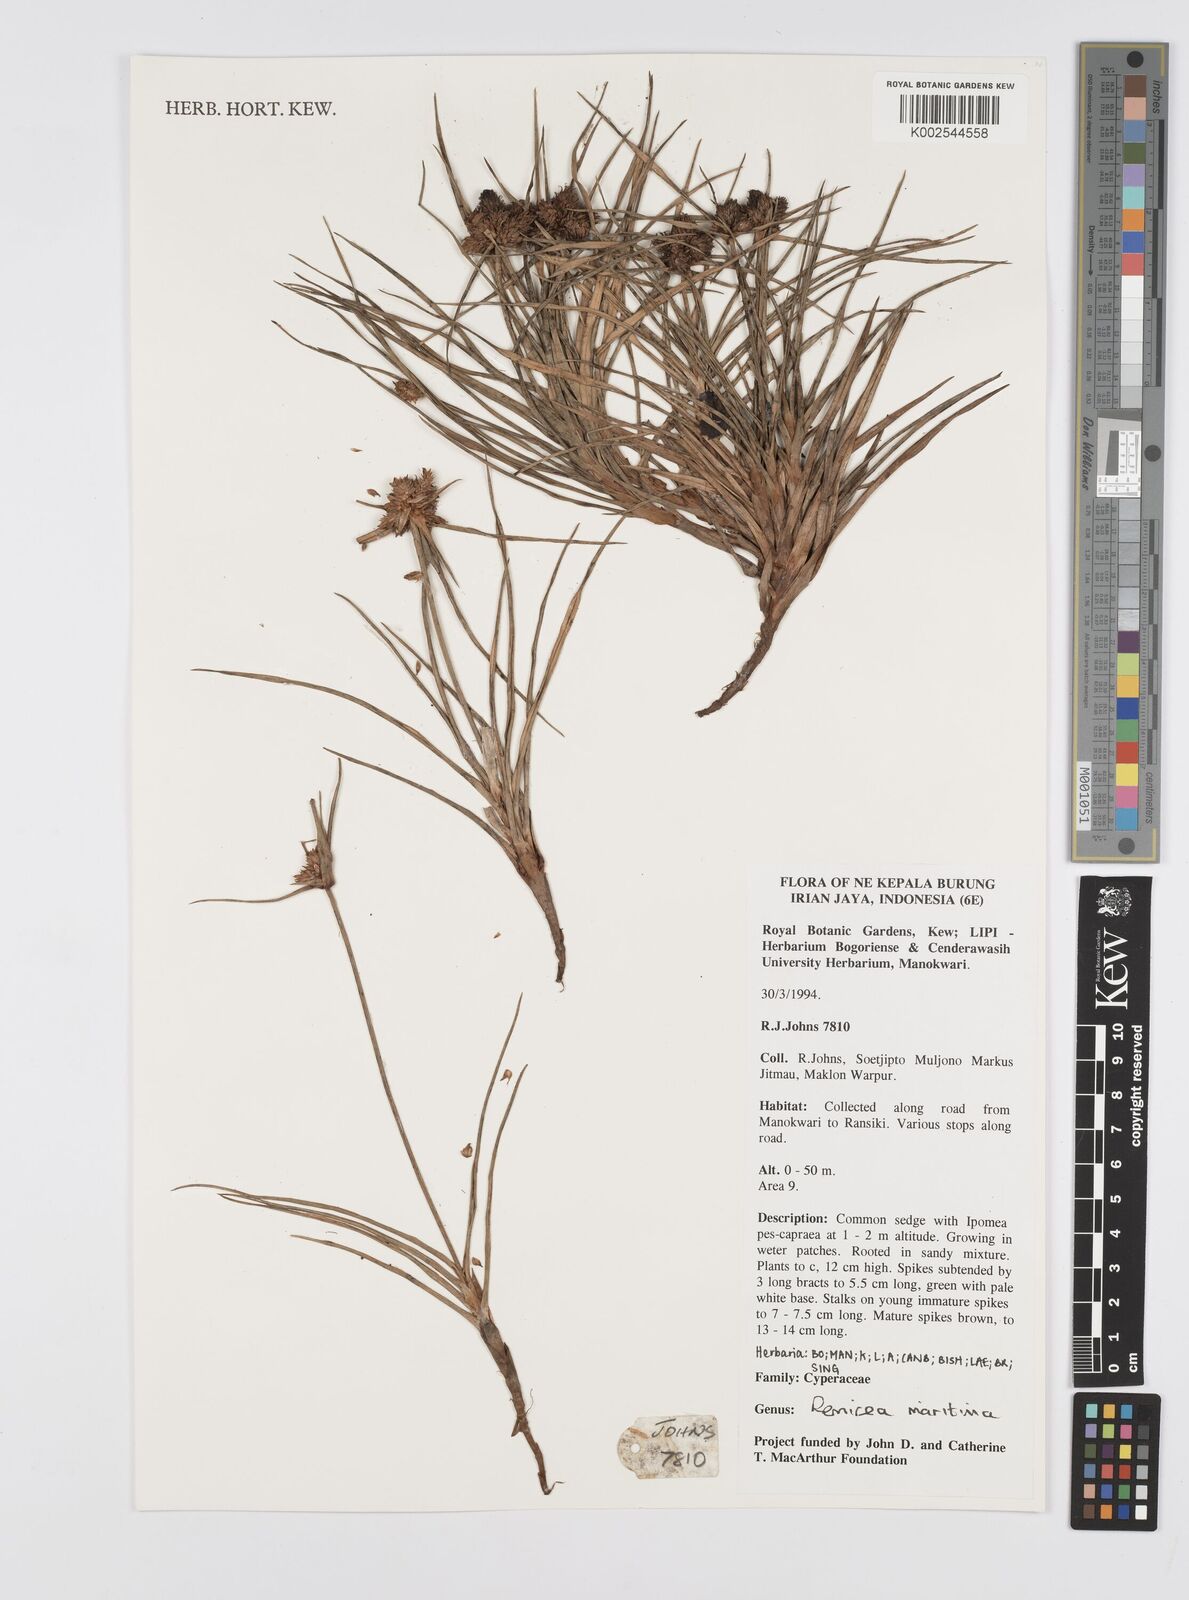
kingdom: Plantae
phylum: Tracheophyta
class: Liliopsida
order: Poales
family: Cyperaceae
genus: Cyperus
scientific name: Cyperus
